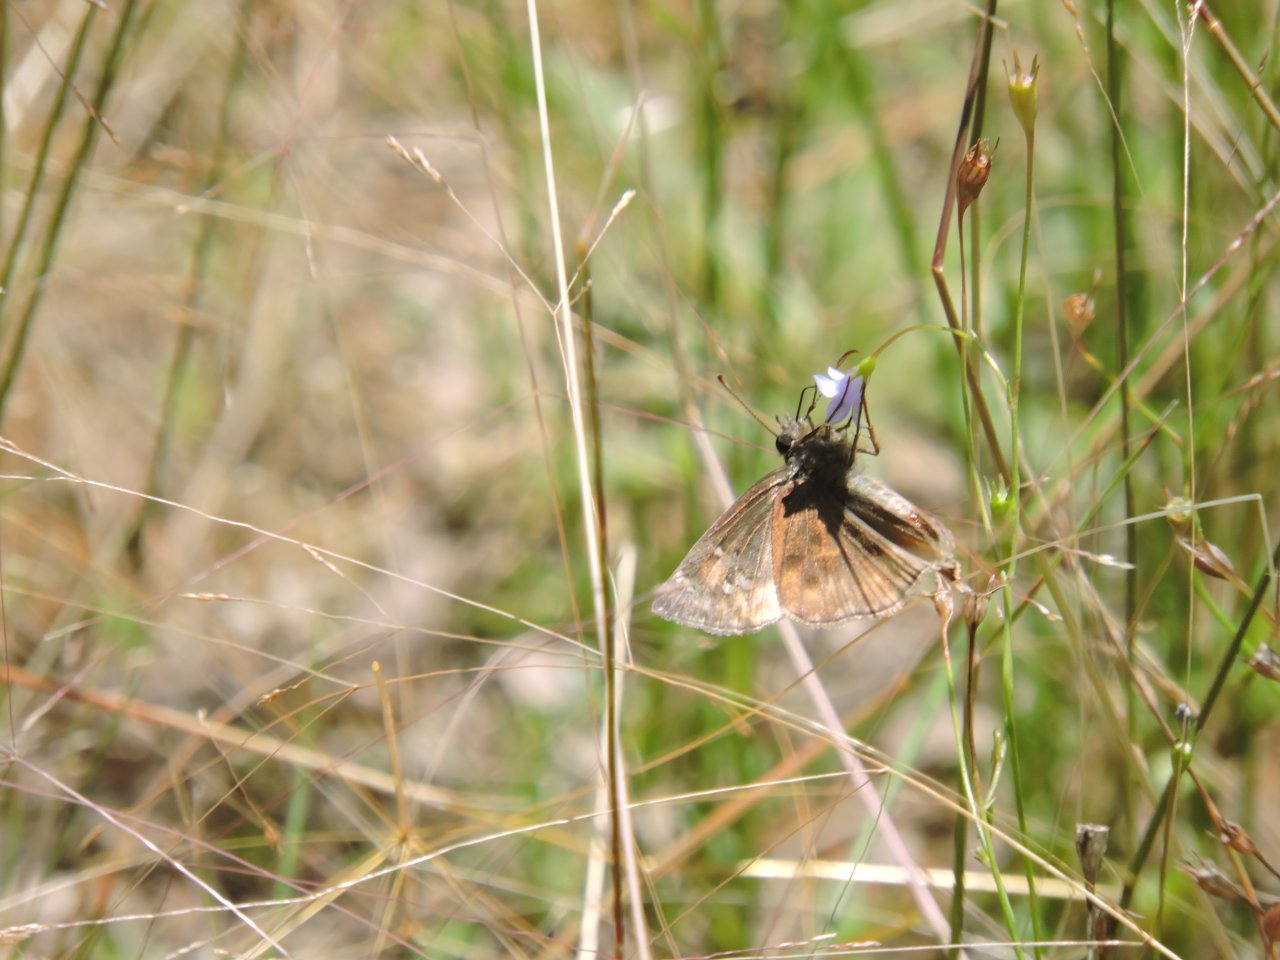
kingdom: Animalia
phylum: Arthropoda
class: Insecta
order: Lepidoptera
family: Hesperiidae
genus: Autochton
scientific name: Autochton
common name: Northern Cloudywing
